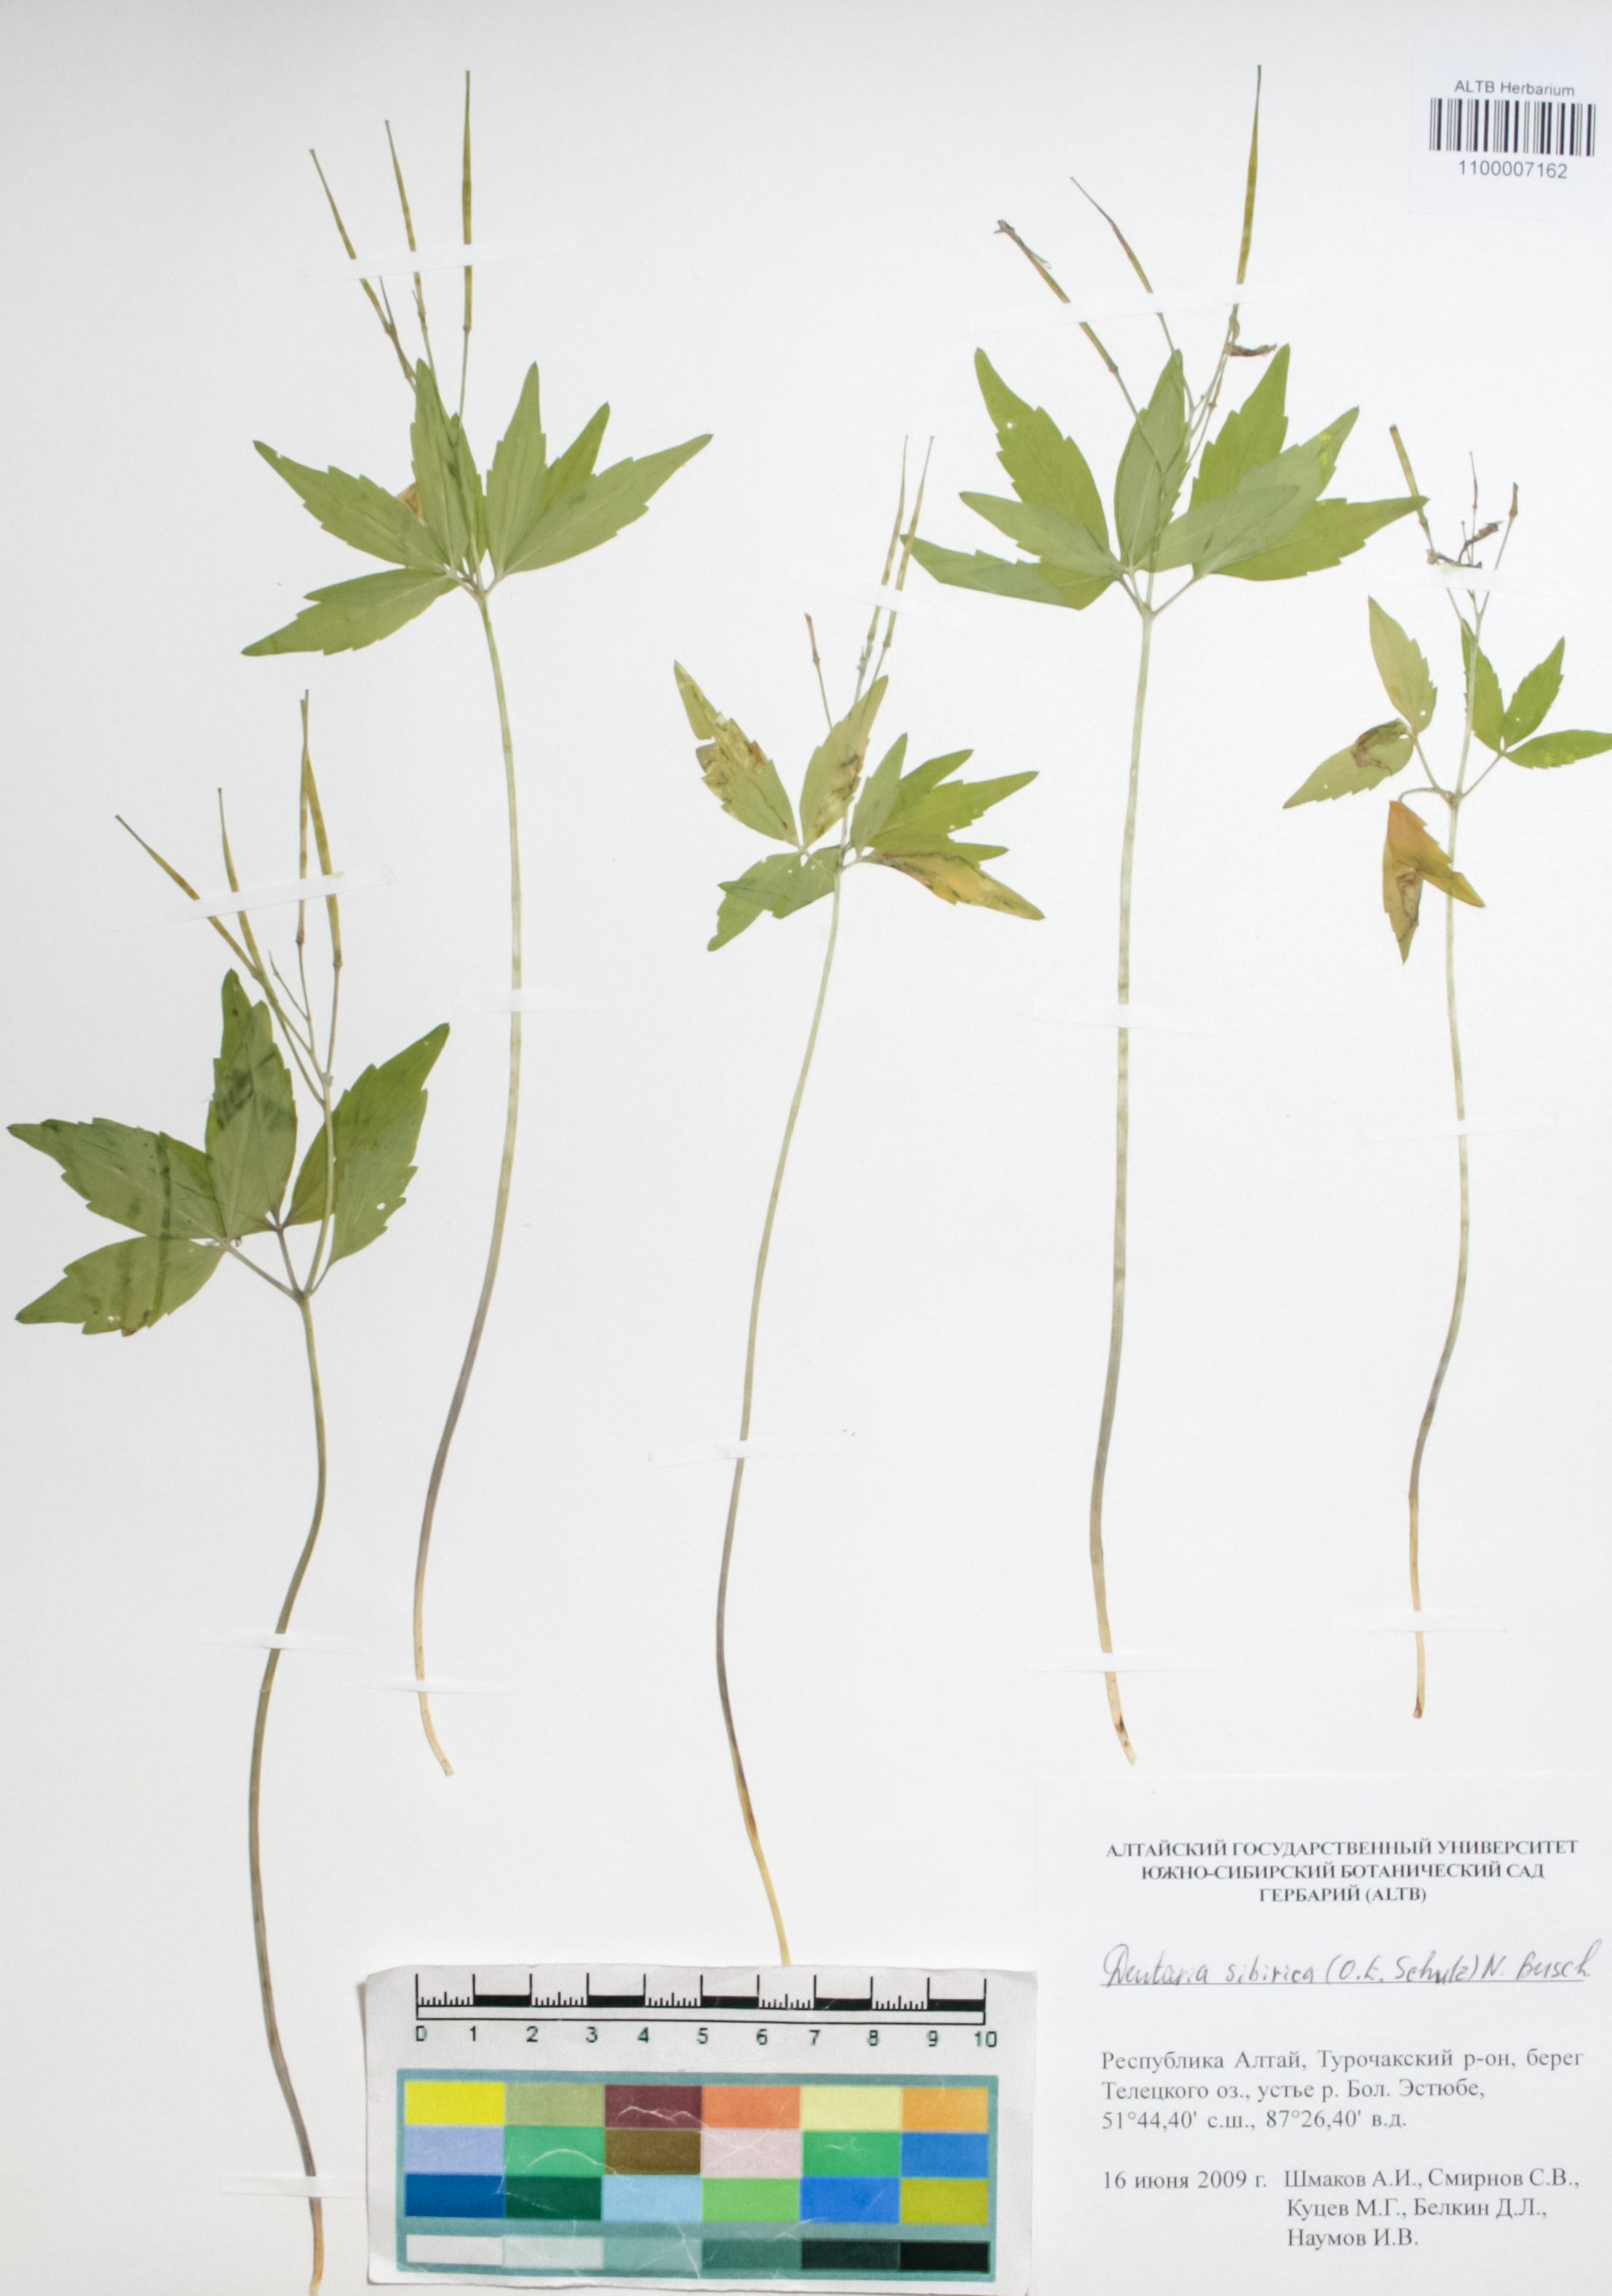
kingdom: Plantae
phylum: Tracheophyta
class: Magnoliopsida
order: Brassicales
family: Brassicaceae
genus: Cardamine
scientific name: Cardamine glanduligera
